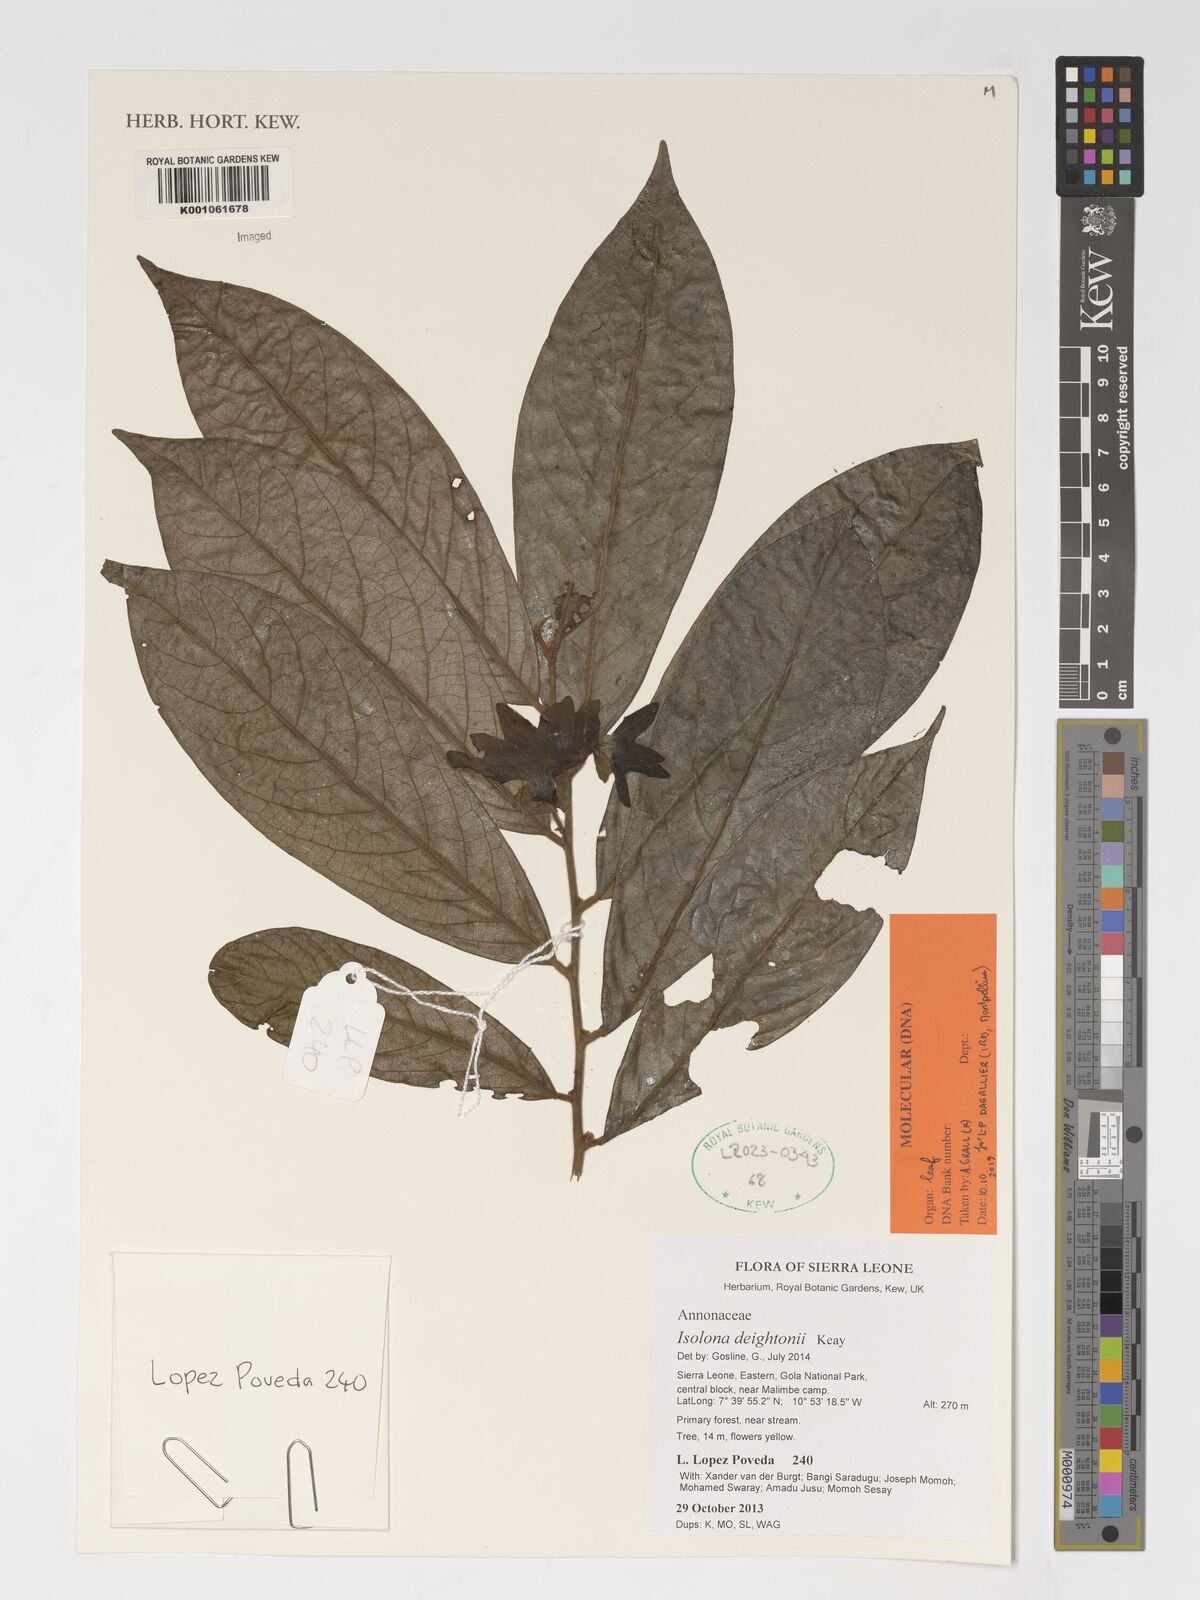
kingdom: Plantae
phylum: Tracheophyta
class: Magnoliopsida
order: Magnoliales
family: Annonaceae
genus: Isolona
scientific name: Isolona deightonii
